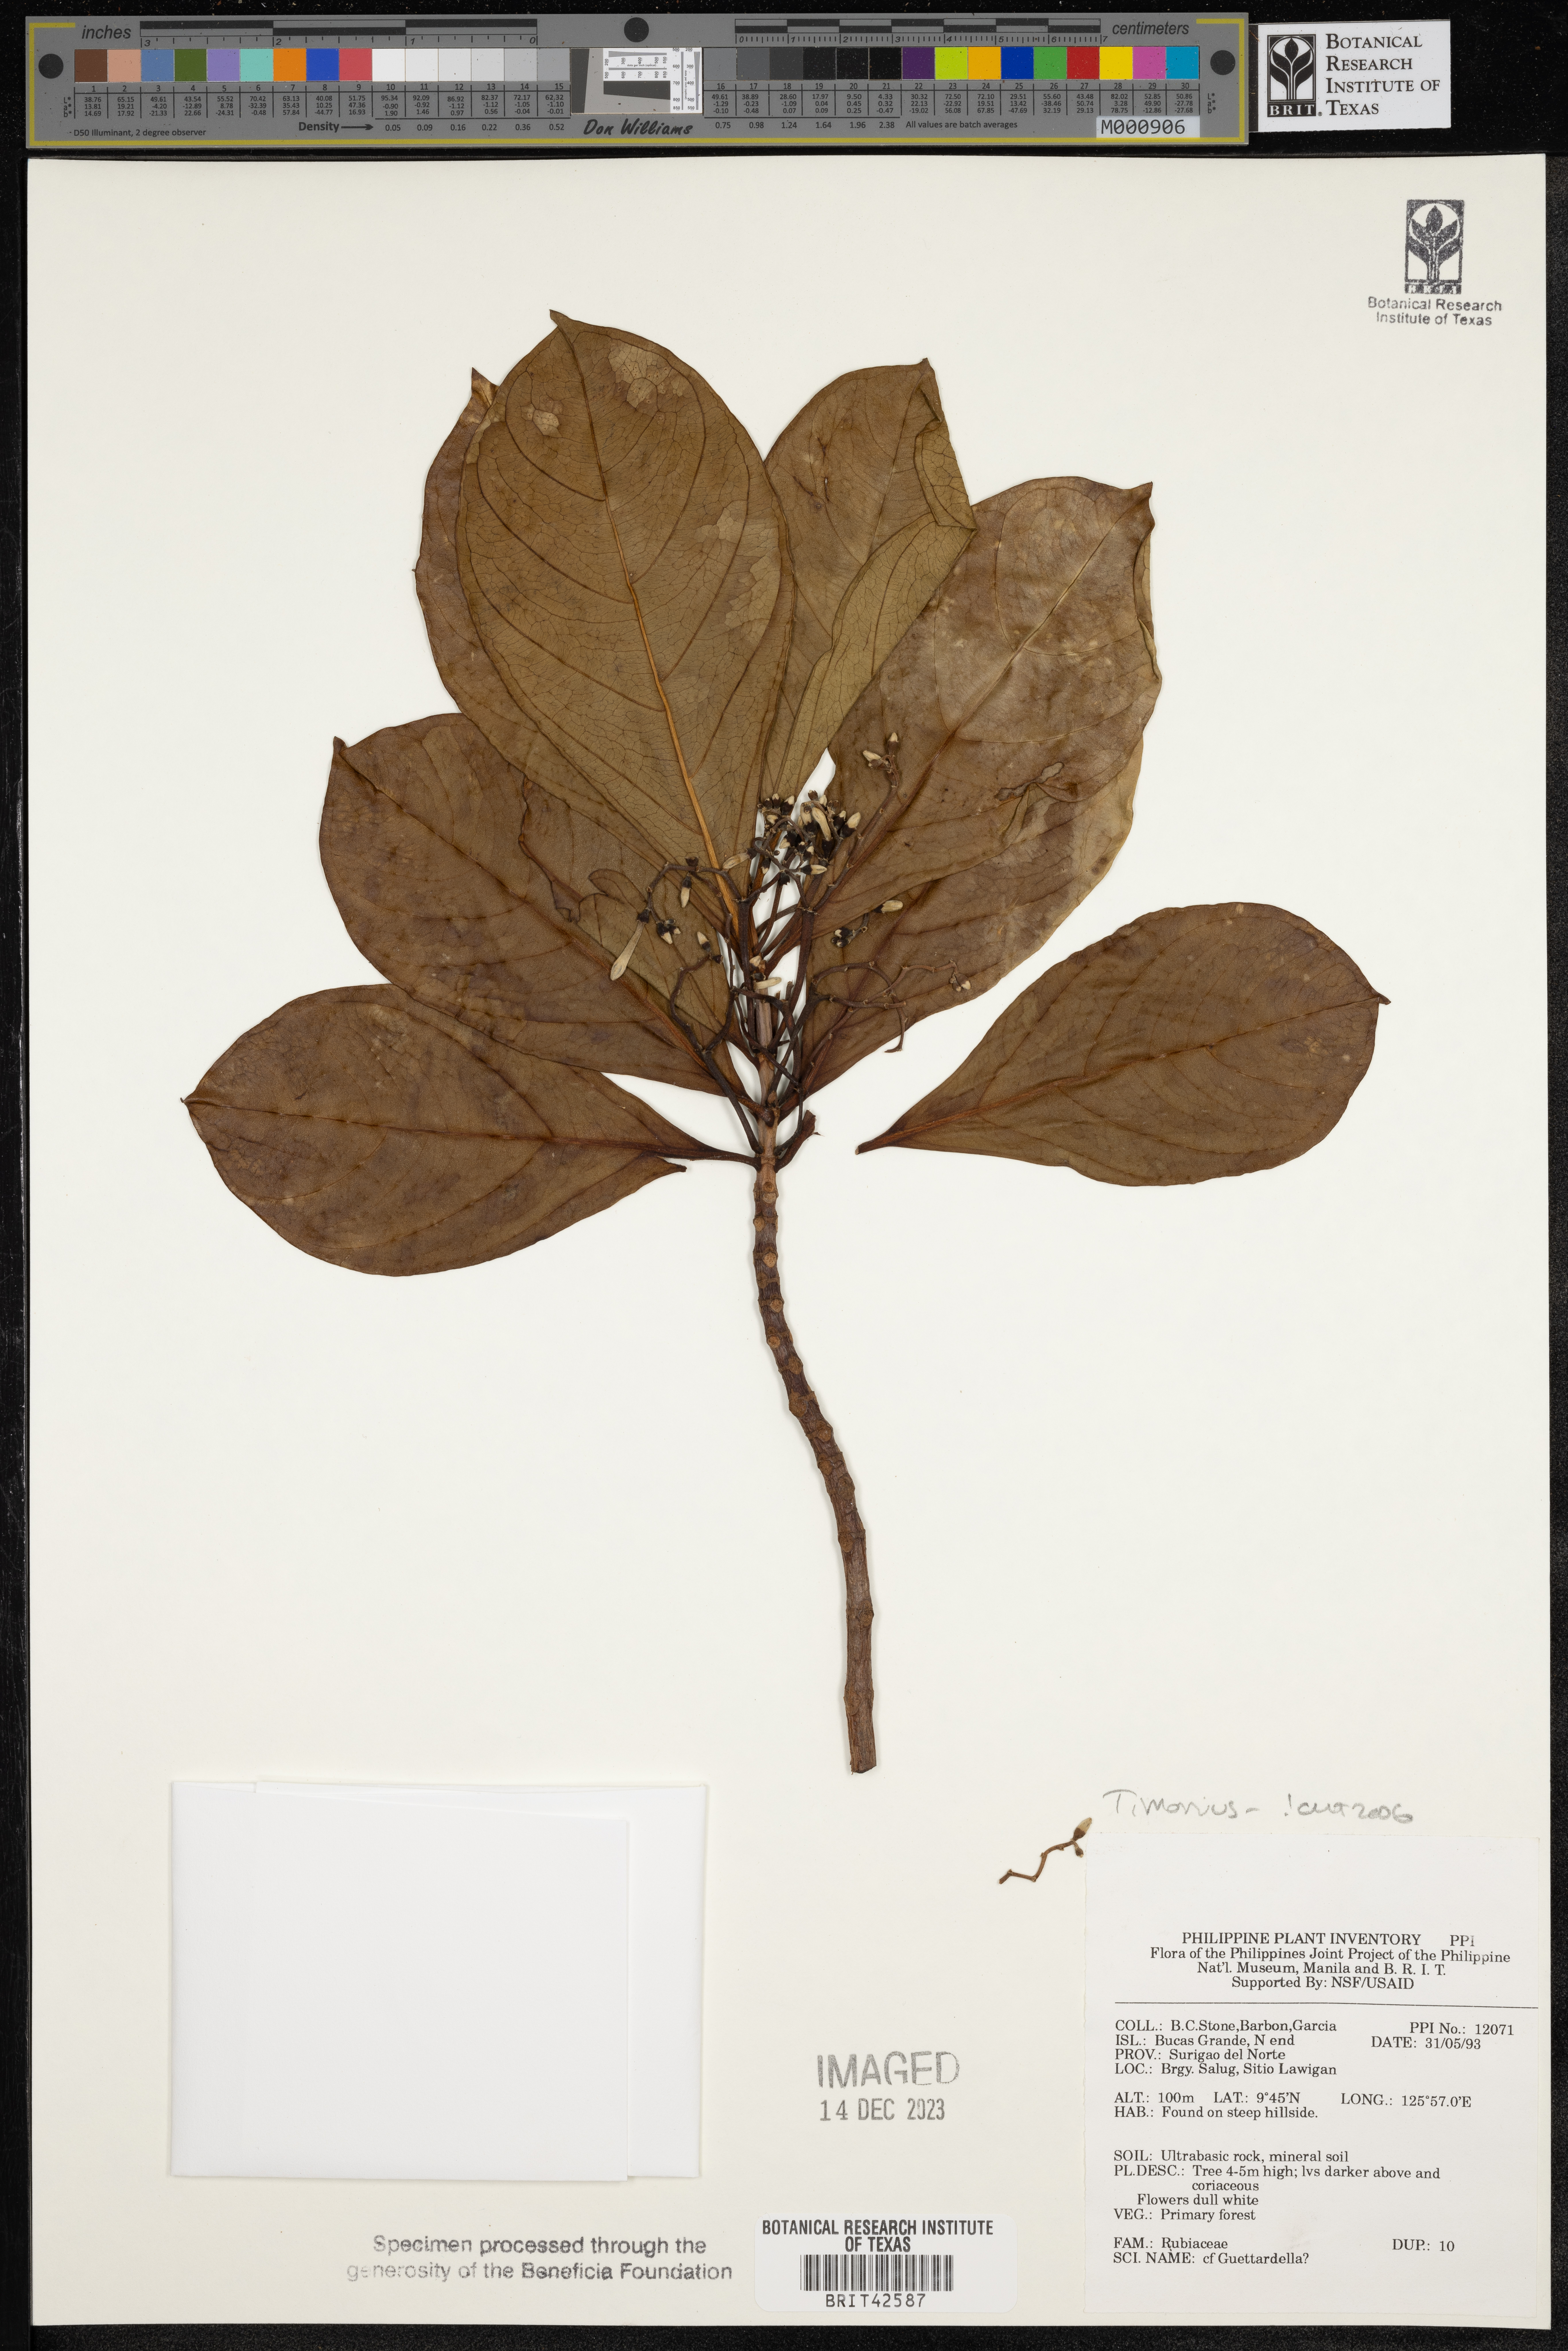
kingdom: Plantae
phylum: Tracheophyta
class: Magnoliopsida
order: Gentianales
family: Rubiaceae
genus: Timonius
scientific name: Timonius
